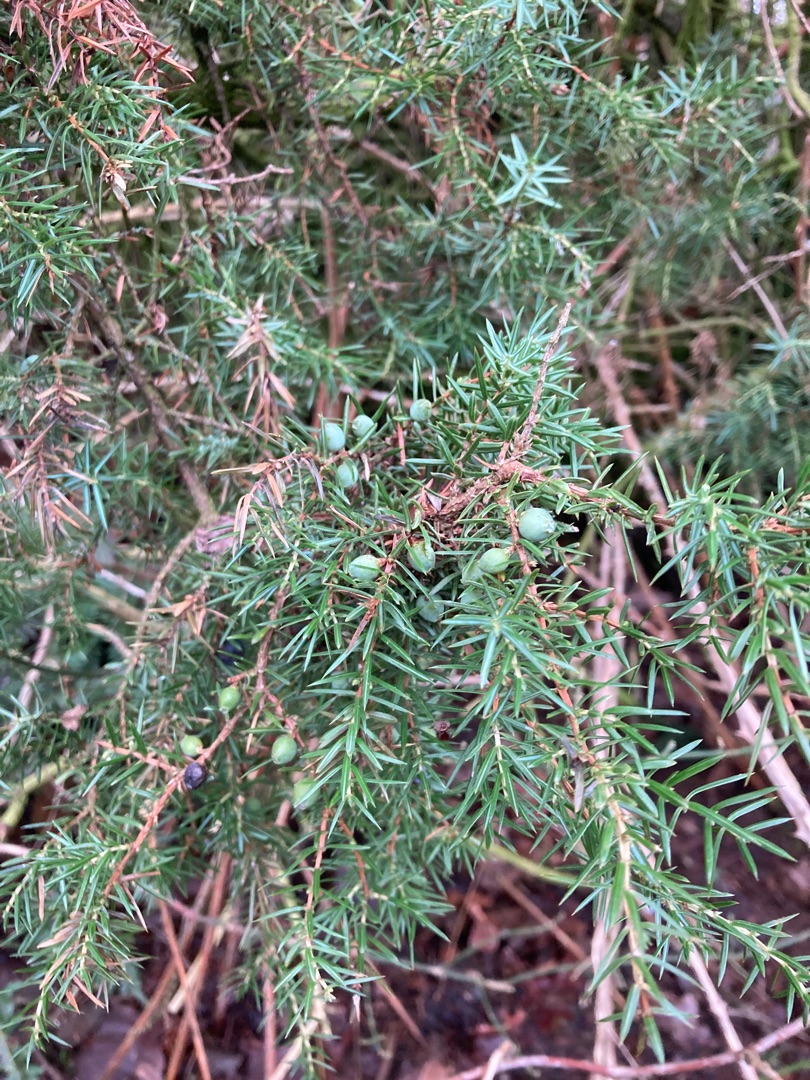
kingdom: Plantae
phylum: Tracheophyta
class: Pinopsida
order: Pinales
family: Cupressaceae
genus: Juniperus
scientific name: Juniperus communis
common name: Almindelig ene
